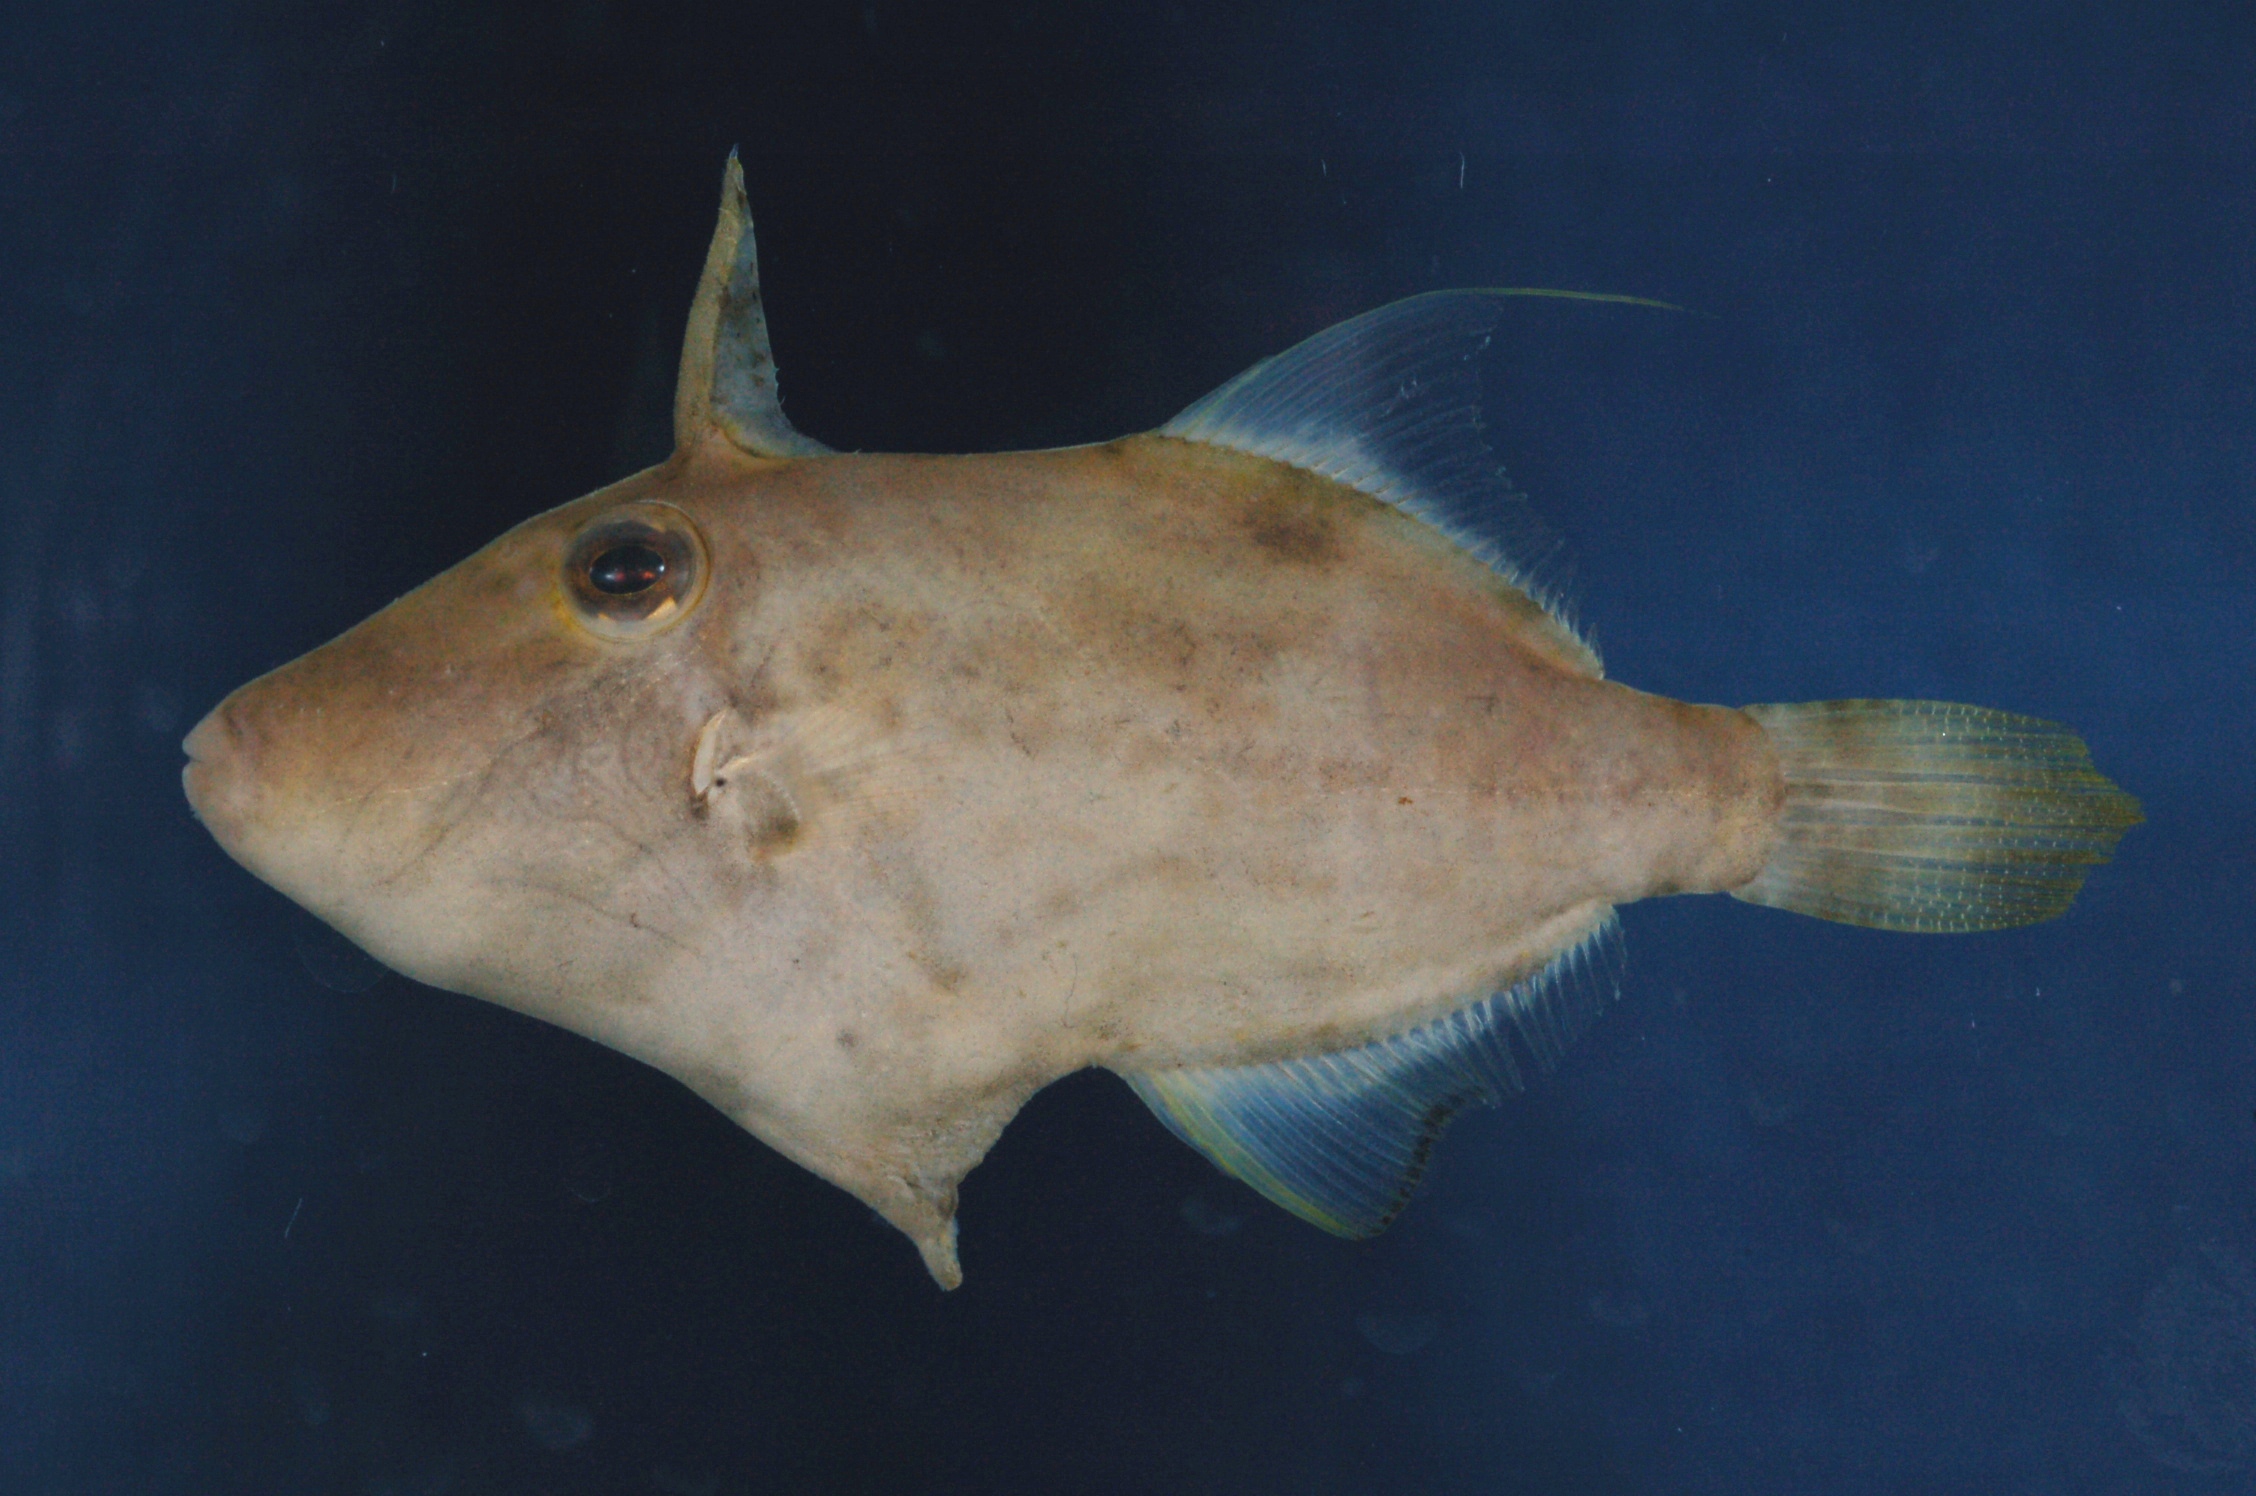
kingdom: Animalia
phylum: Chordata
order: Tetraodontiformes
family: Monacanthidae
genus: Paramonacanthus
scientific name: Paramonacanthus nematophorus
